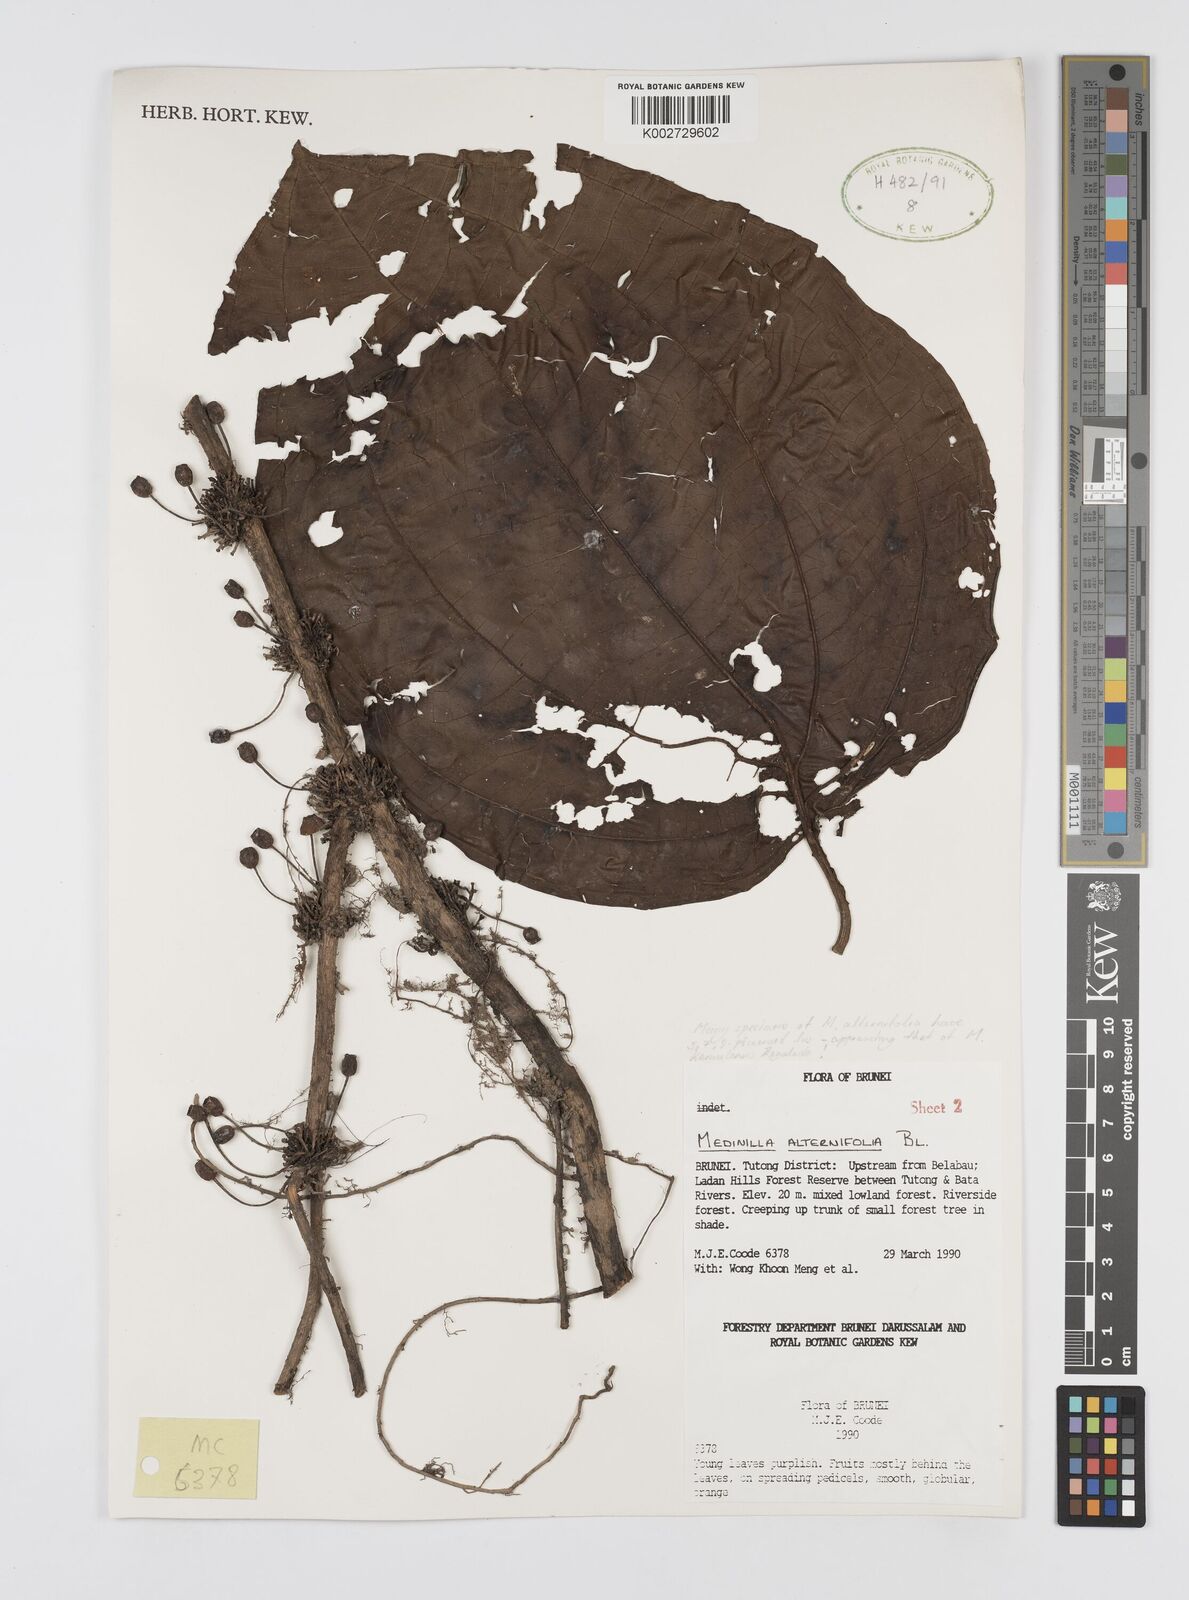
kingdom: Plantae
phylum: Tracheophyta
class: Magnoliopsida
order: Myrtales
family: Melastomataceae
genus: Heteroblemma
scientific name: Heteroblemma alternifolium
